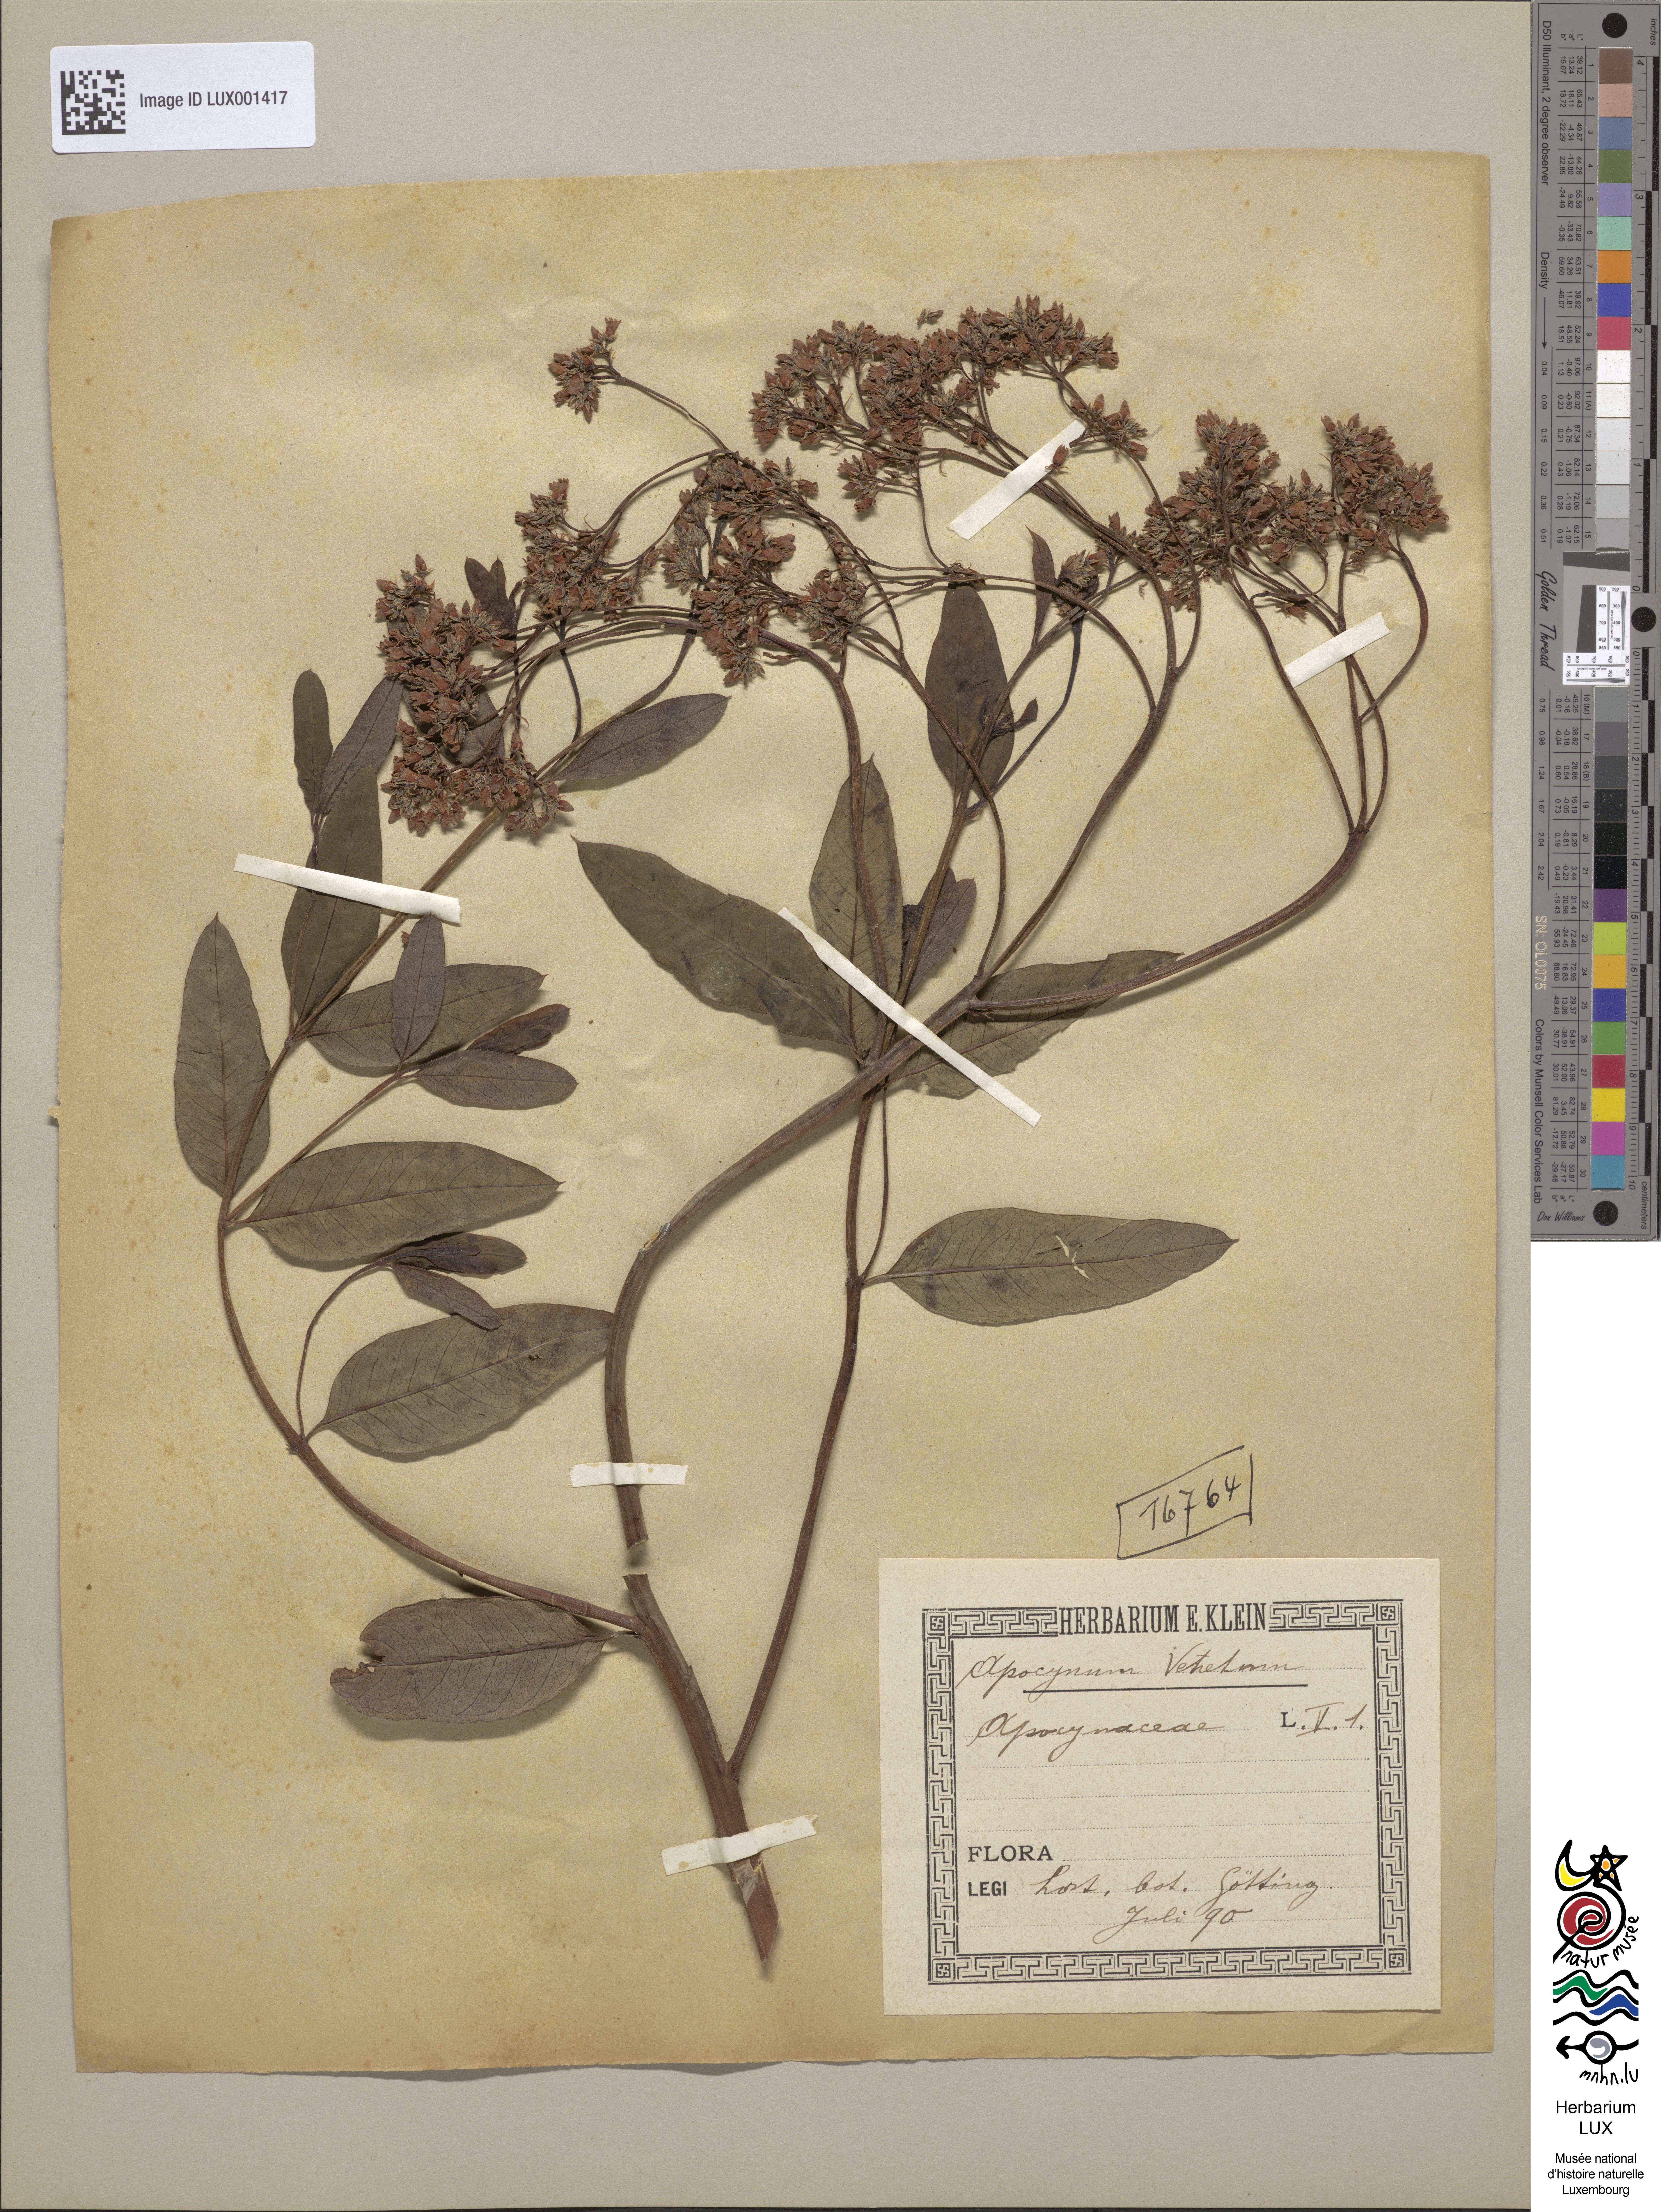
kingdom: Plantae
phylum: Tracheophyta
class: Magnoliopsida
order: Gentianales
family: Apocynaceae
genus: Poacynum
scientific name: Poacynum venetum
